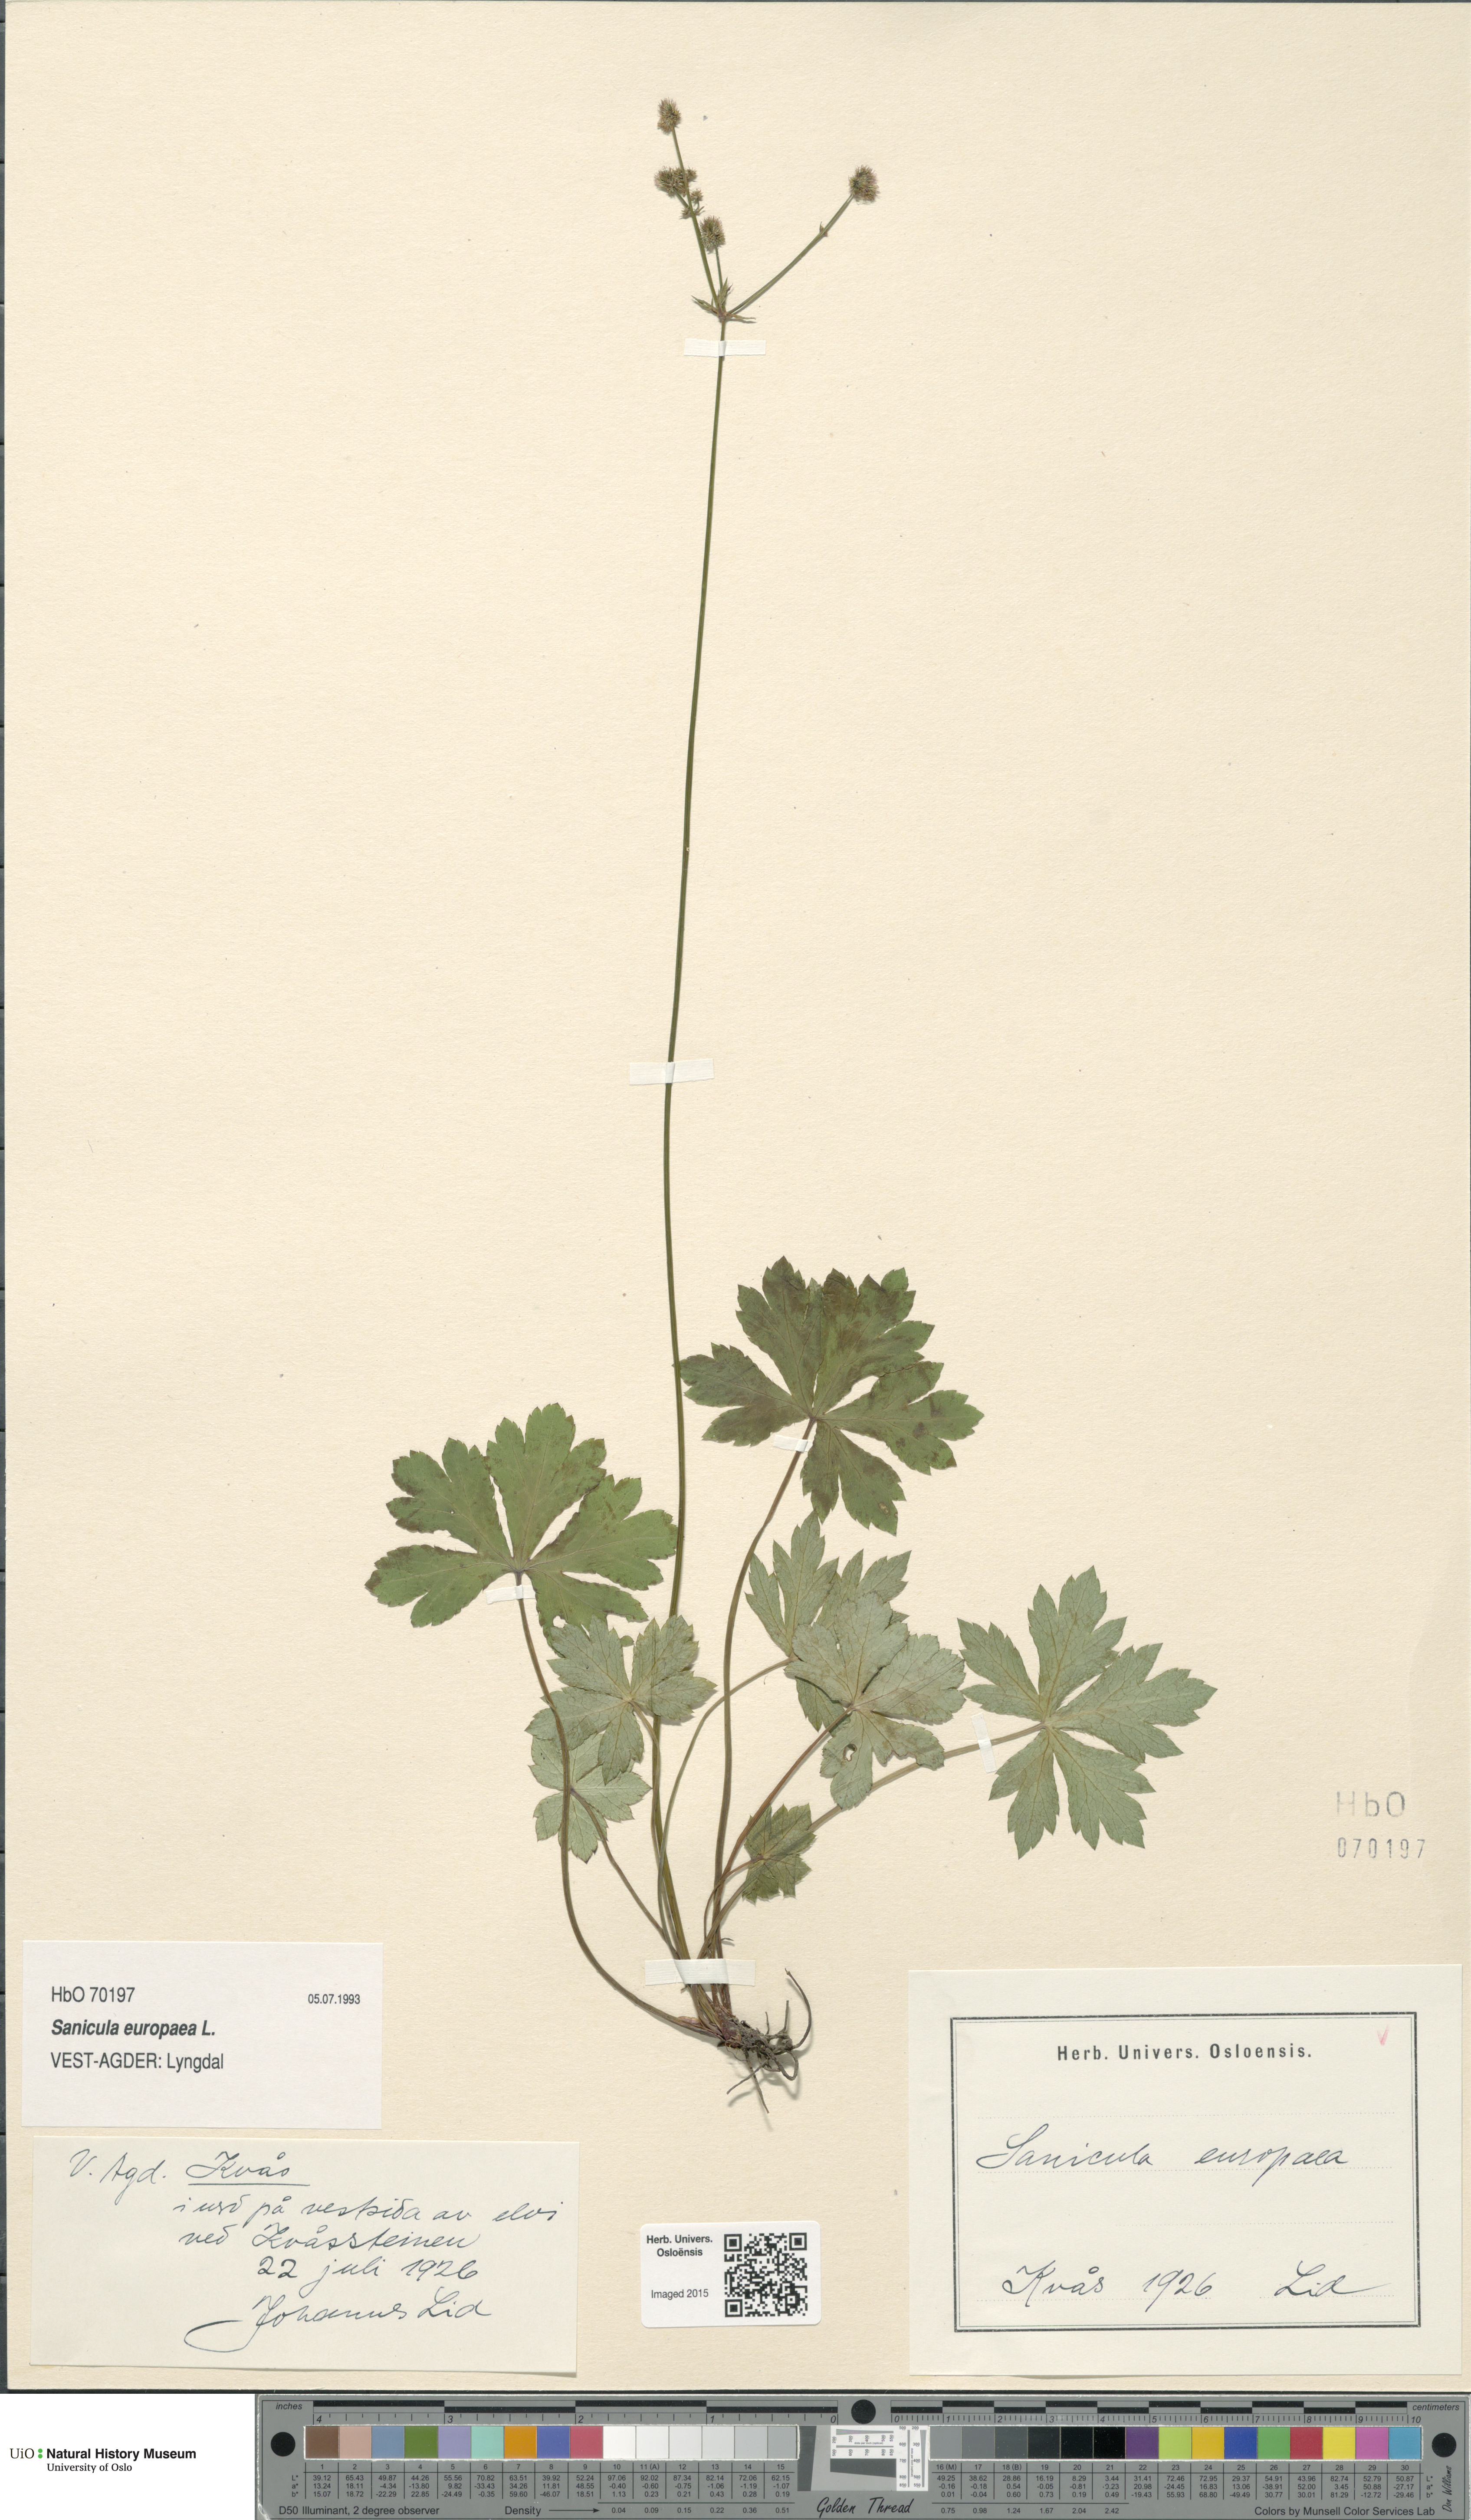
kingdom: Plantae
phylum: Tracheophyta
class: Magnoliopsida
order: Apiales
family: Apiaceae
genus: Sanicula
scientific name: Sanicula europaea
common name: Sanicle
